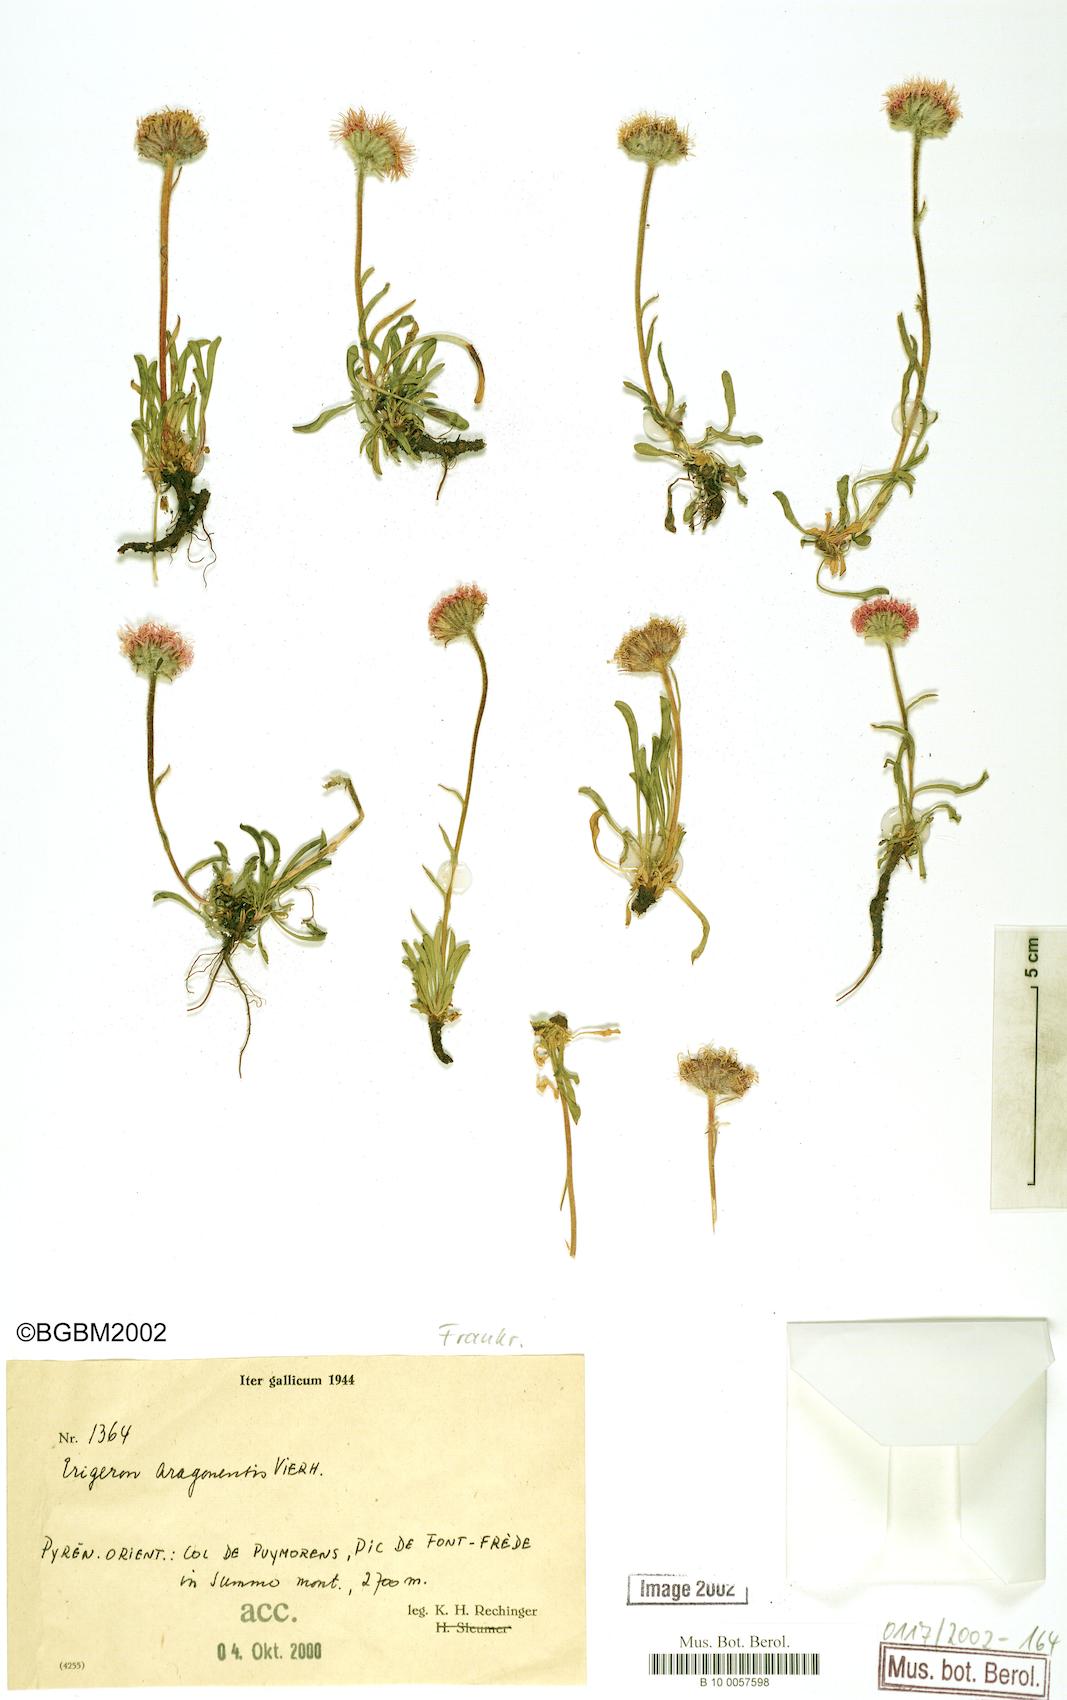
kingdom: Plantae
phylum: Tracheophyta
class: Magnoliopsida
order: Asterales
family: Asteraceae
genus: Erigeron
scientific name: Erigeron aragonensis
